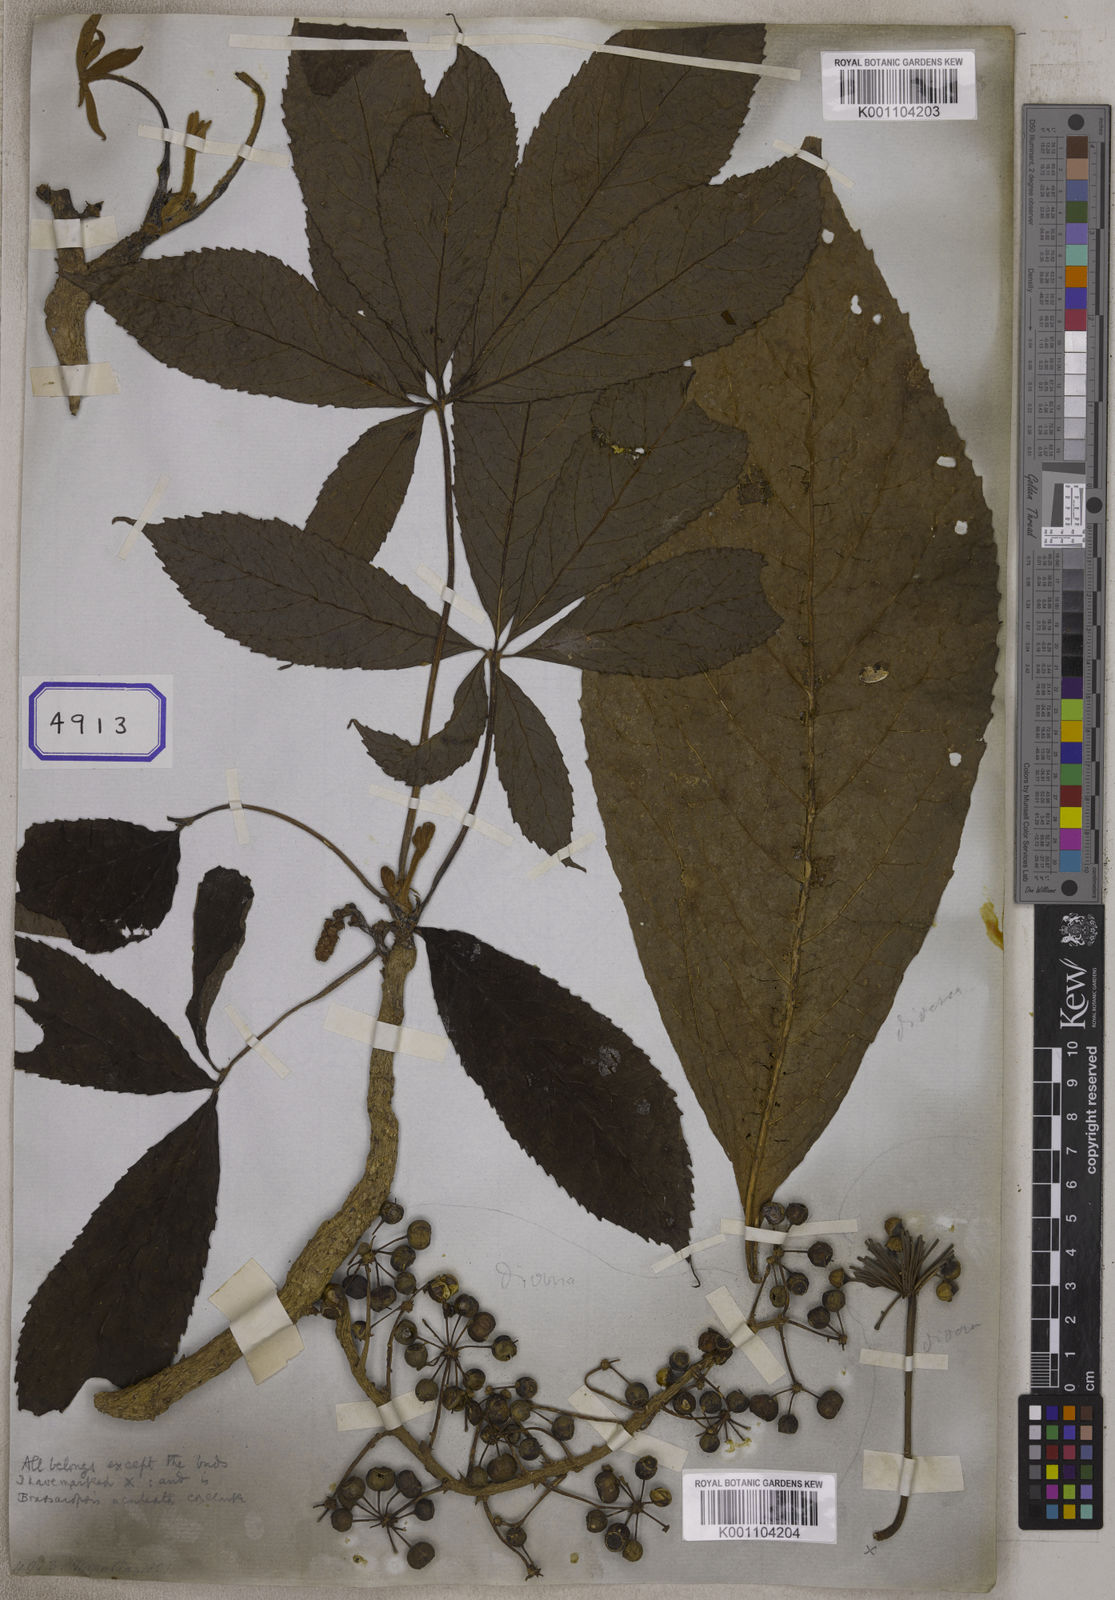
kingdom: Plantae
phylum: Tracheophyta
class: Magnoliopsida
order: Apiales
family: Araliaceae
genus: Hedera
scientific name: Hedera
